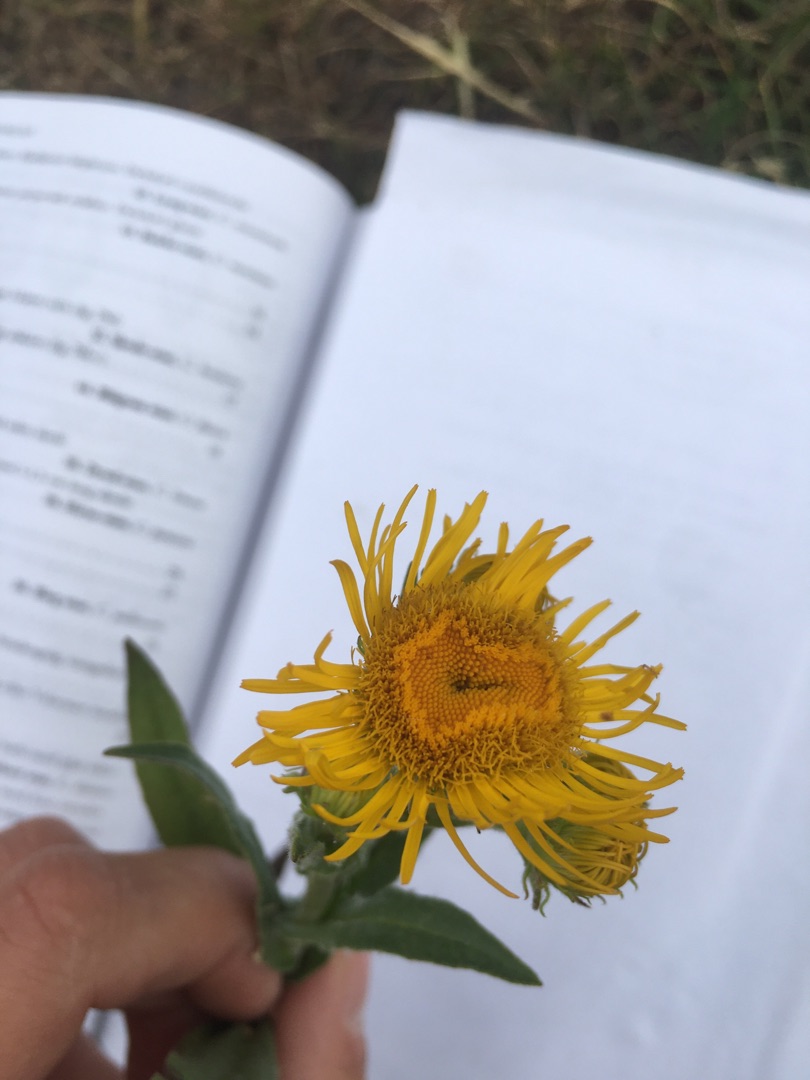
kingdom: Plantae
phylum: Tracheophyta
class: Magnoliopsida
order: Asterales
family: Asteraceae
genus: Pentanema
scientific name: Pentanema britannicum
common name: Soløje-alant
